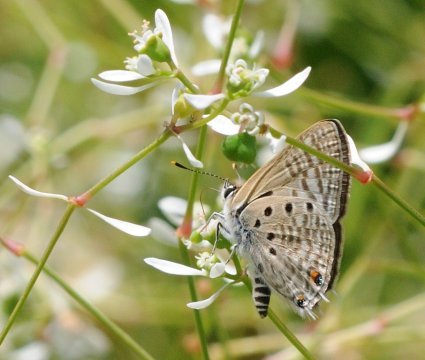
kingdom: Animalia
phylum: Arthropoda
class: Insecta
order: Lepidoptera
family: Lycaenidae
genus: Anthene
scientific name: Anthene amarah
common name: Black-striped Hairtail
